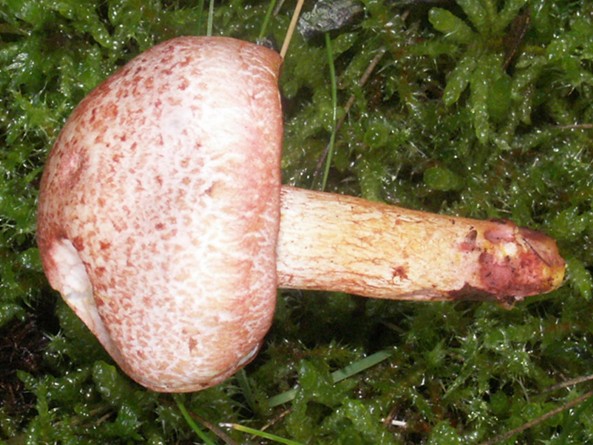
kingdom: Fungi
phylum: Basidiomycota
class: Agaricomycetes
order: Agaricales
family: Cortinariaceae
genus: Cortinarius
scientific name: Cortinarius bolaris
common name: cinnoberskællet slørhat
